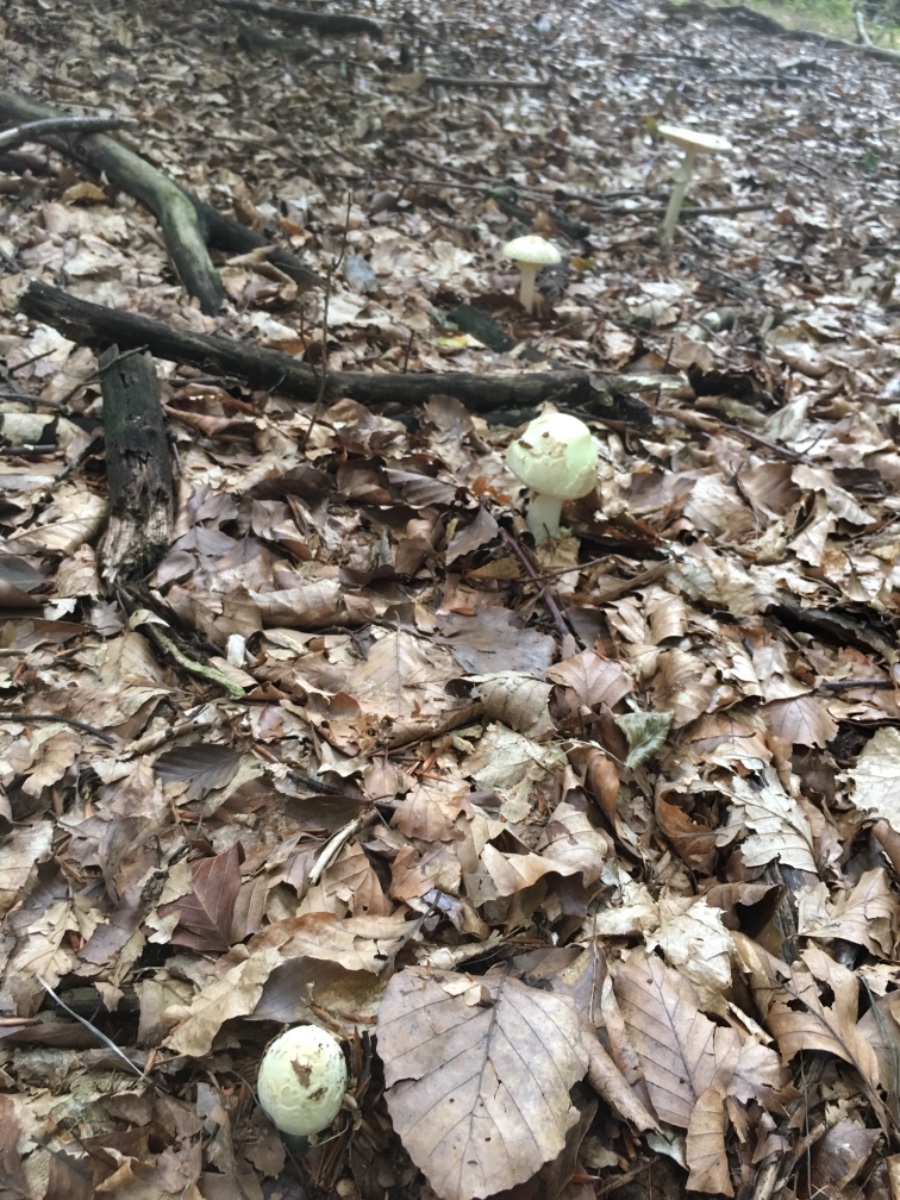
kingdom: Fungi
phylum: Basidiomycota
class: Agaricomycetes
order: Agaricales
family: Amanitaceae
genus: Amanita
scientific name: Amanita citrina
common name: kugleknoldet fluesvamp
